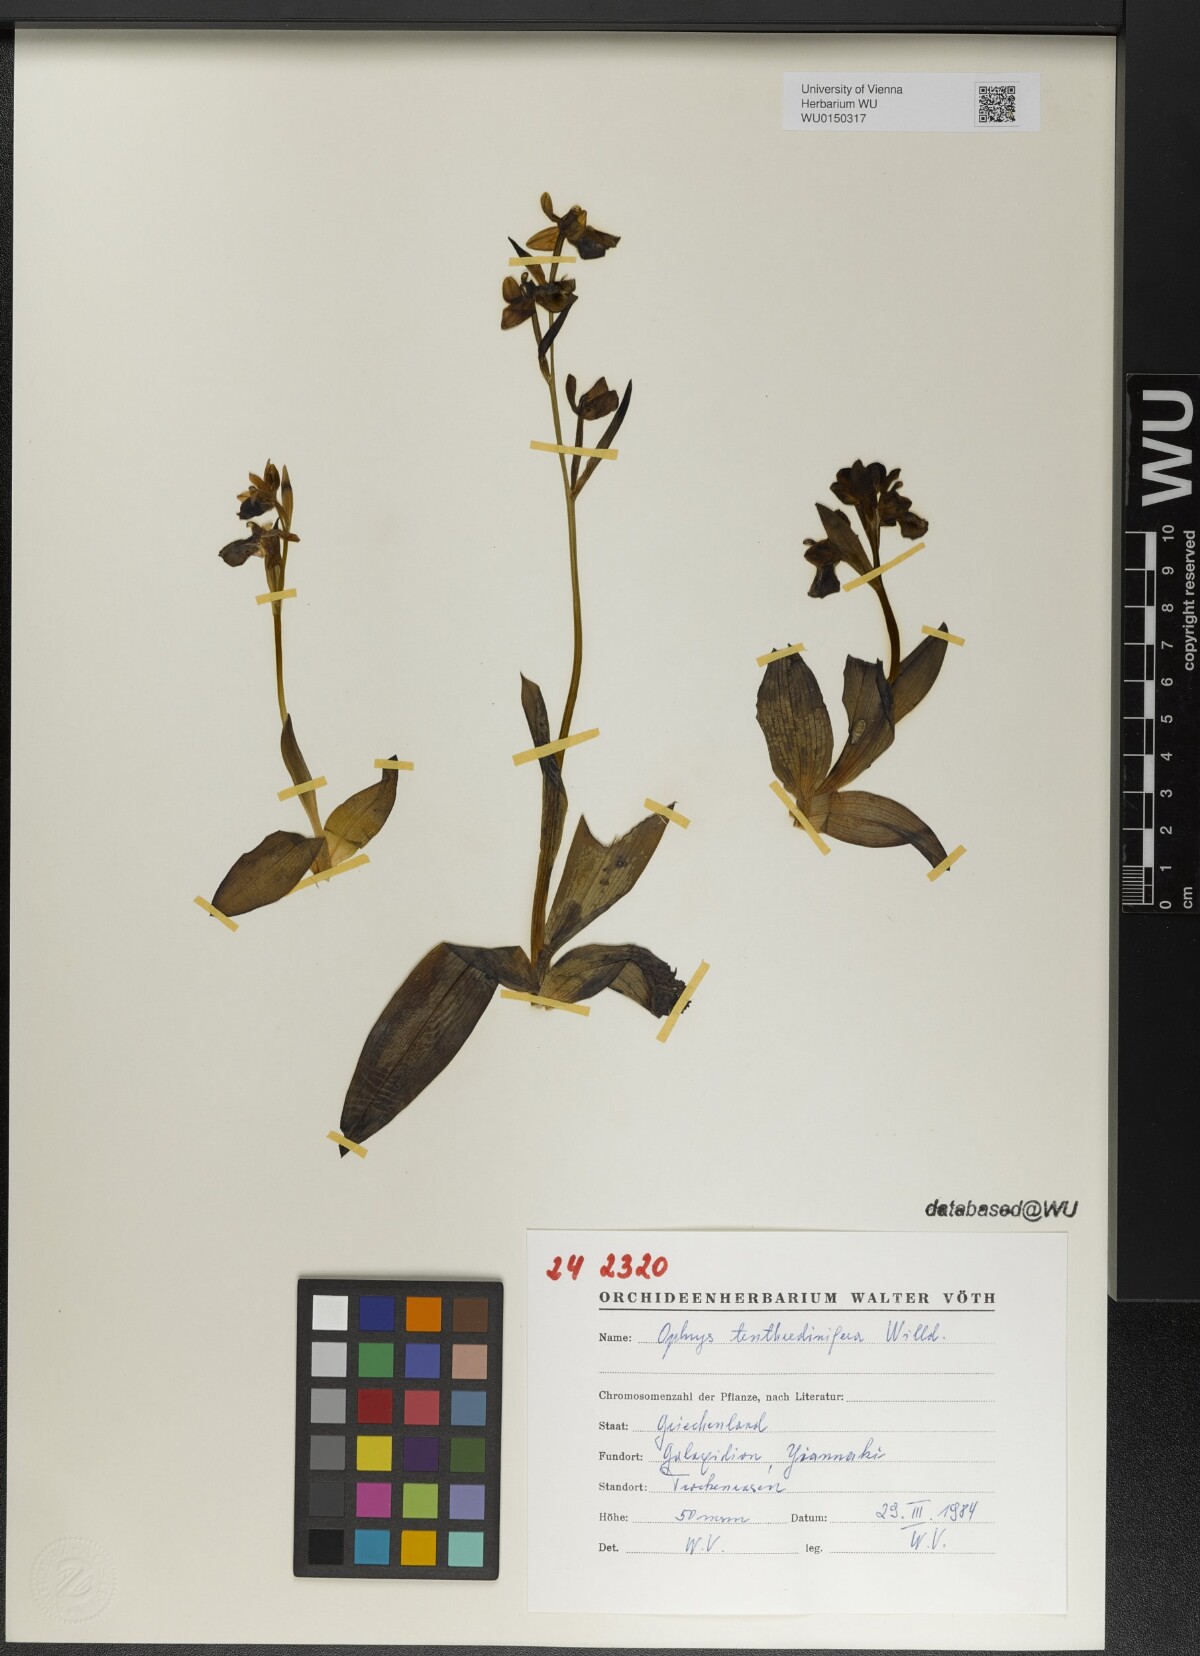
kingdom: Plantae
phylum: Tracheophyta
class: Liliopsida
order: Asparagales
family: Orchidaceae
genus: Ophrys
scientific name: Ophrys tenthredinifera
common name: Sawfly orchid
